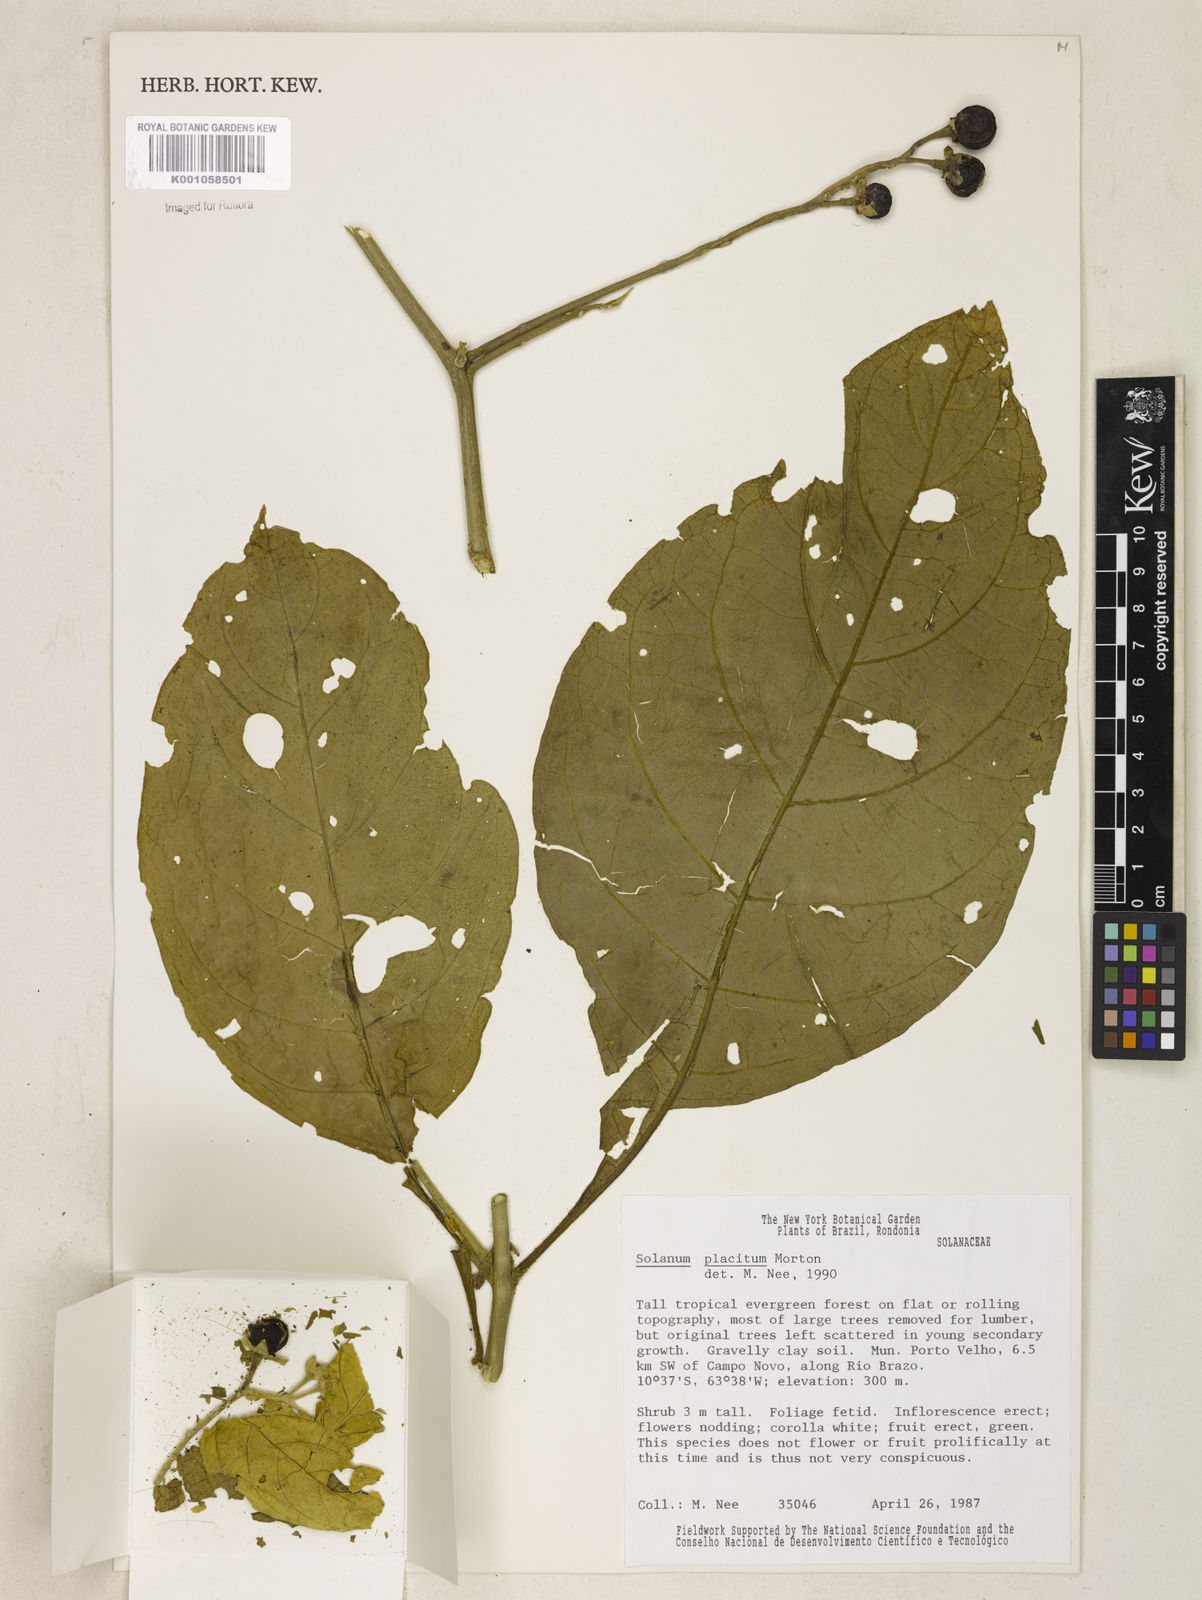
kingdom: Plantae
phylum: Tracheophyta
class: Magnoliopsida
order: Solanales
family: Solanaceae
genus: Solanum
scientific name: Solanum placitum
